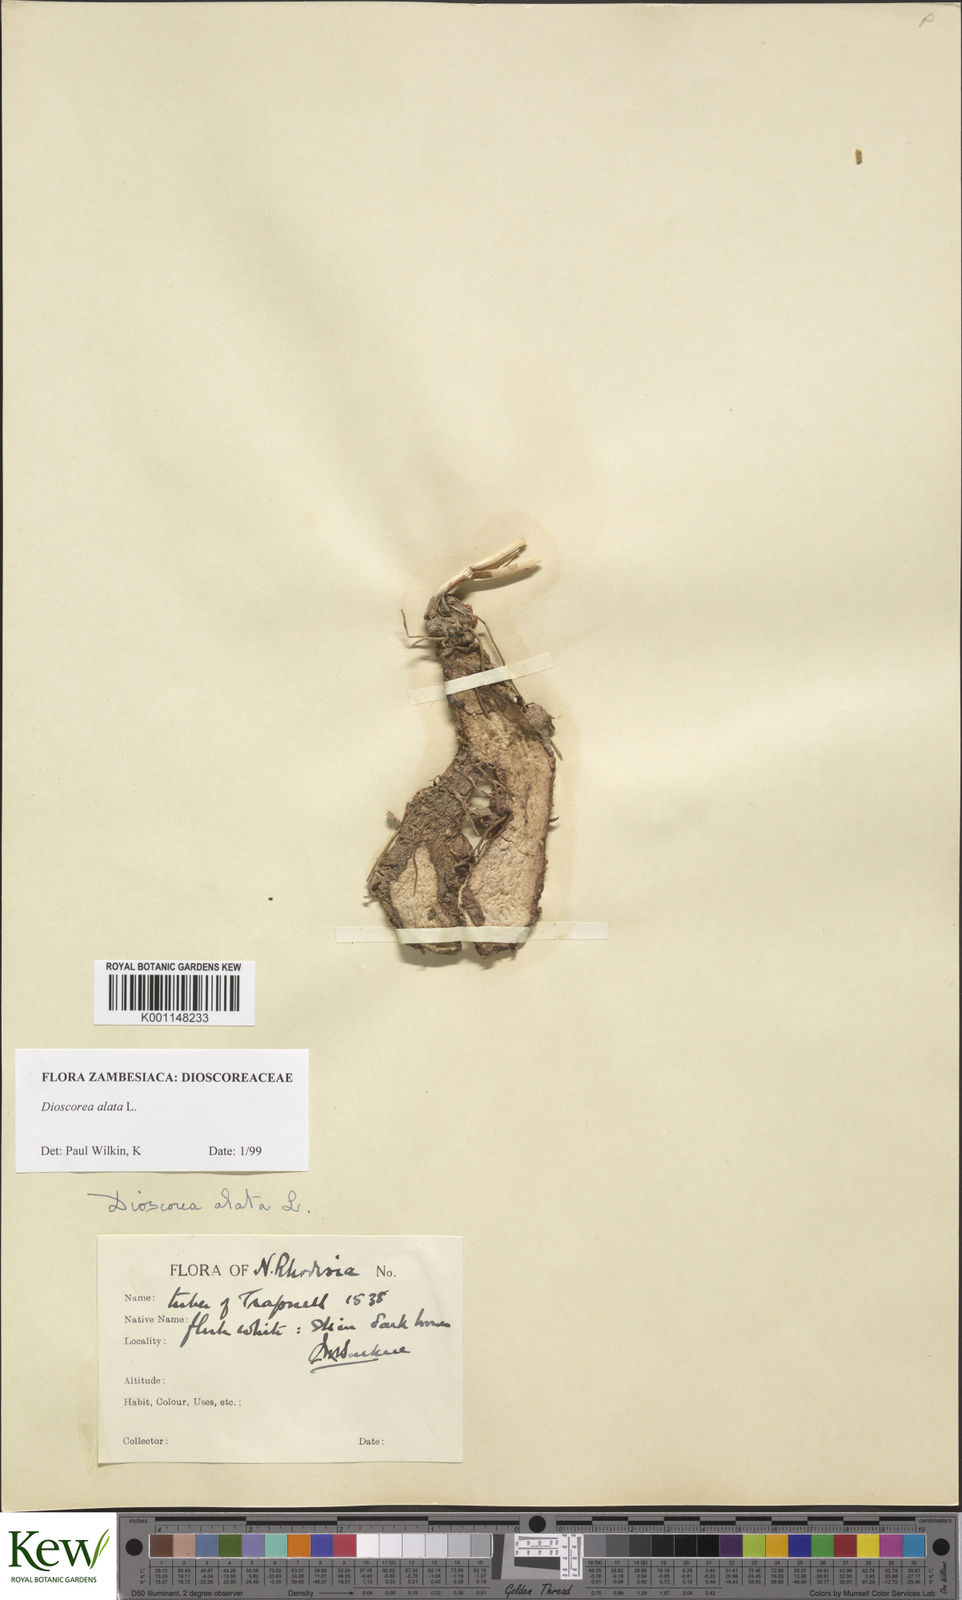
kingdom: Plantae
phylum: Tracheophyta
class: Liliopsida
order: Dioscoreales
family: Dioscoreaceae
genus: Dioscorea
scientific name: Dioscorea alata
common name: Water yam
